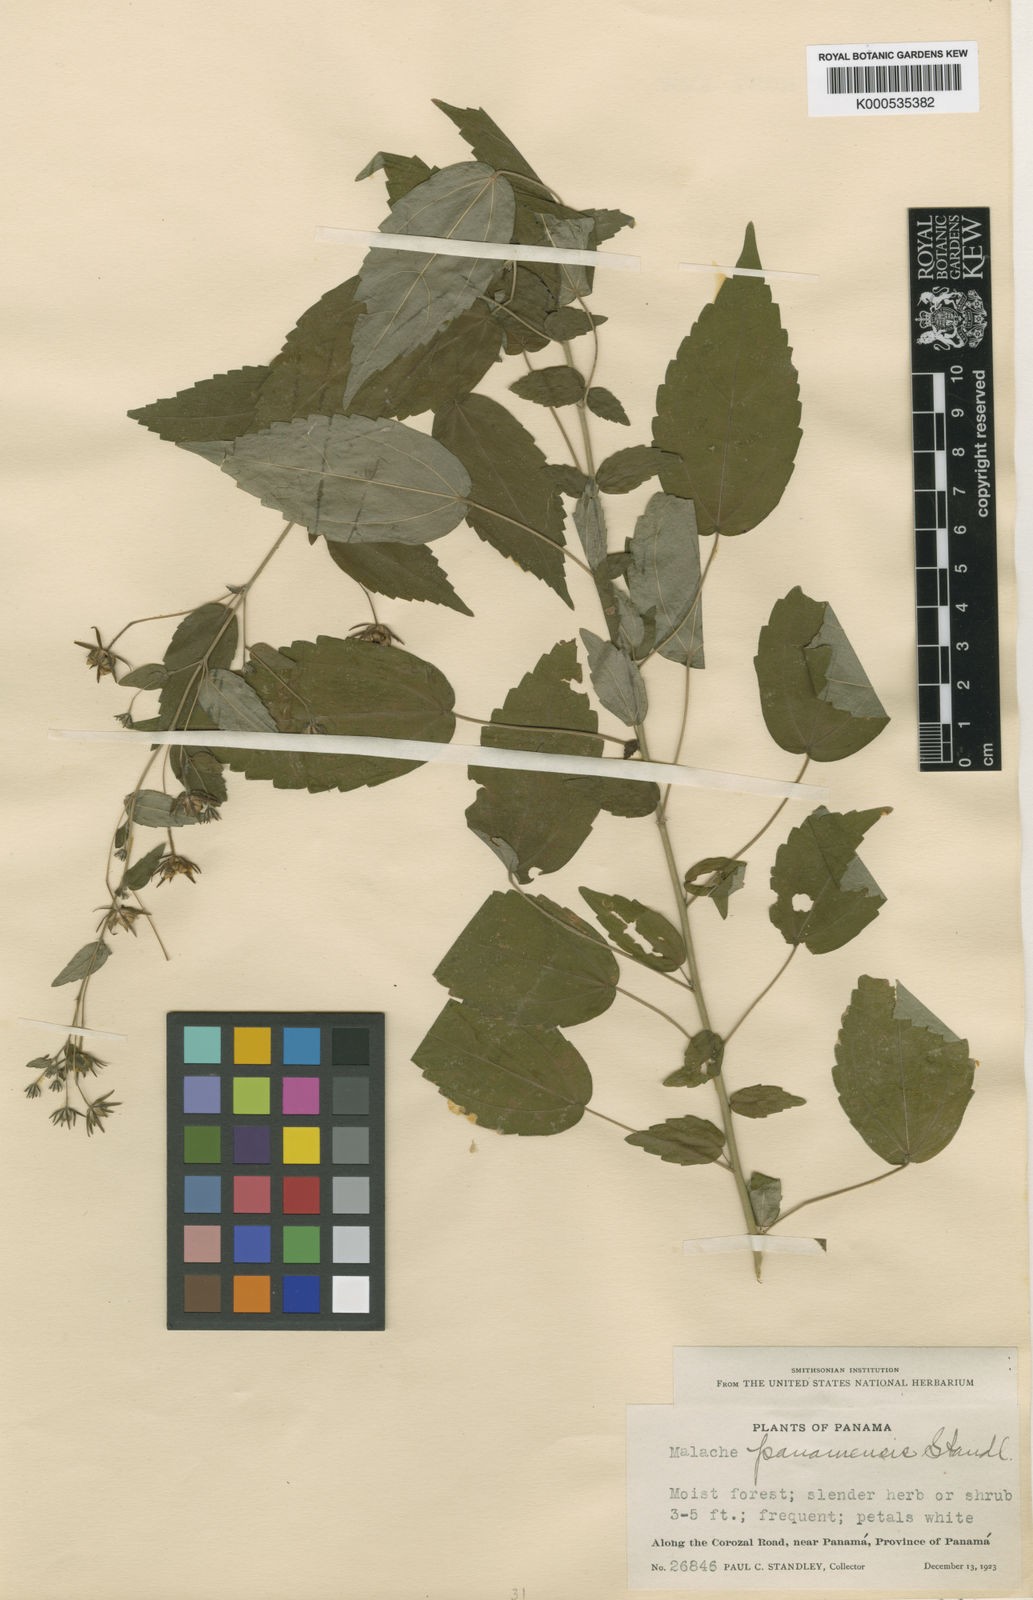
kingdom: Plantae
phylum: Tracheophyta
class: Magnoliopsida
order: Malvales
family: Malvaceae
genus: Pavonia
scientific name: Pavonia alba
